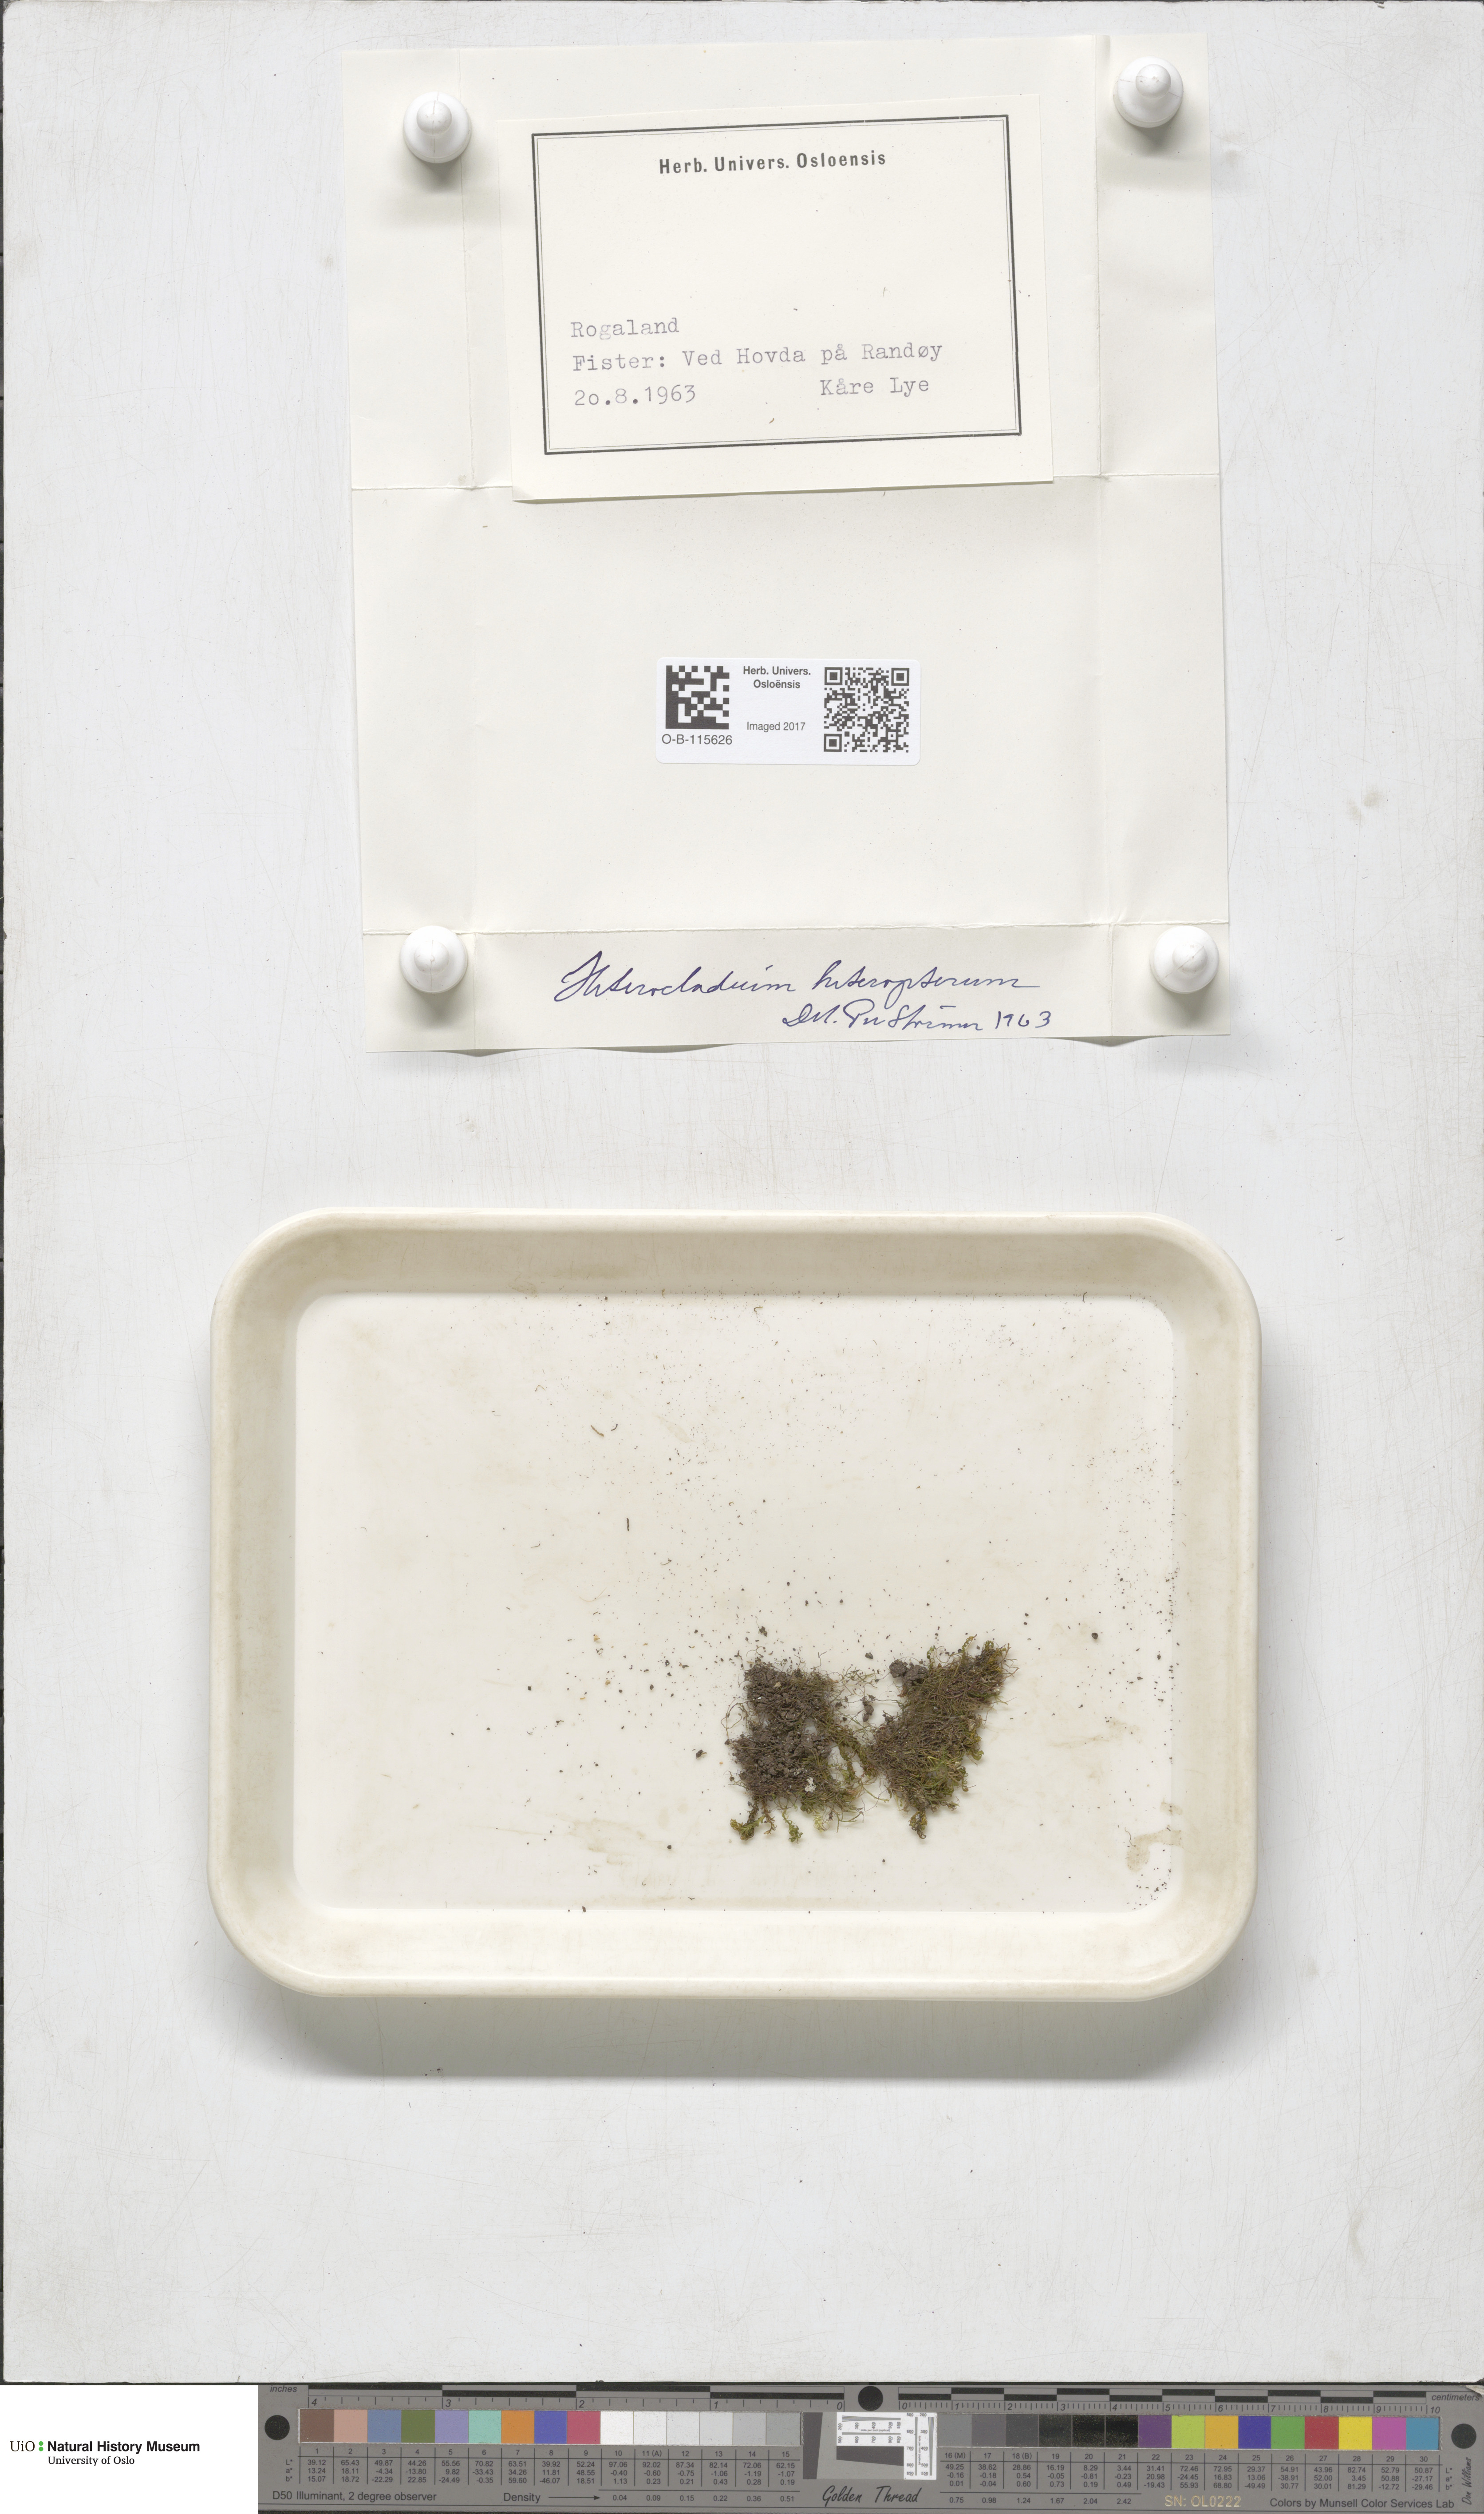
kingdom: Plantae
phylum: Bryophyta
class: Bryopsida
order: Hypnales
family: Lembophyllaceae
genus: Heterocladium
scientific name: Heterocladium heteropterum
